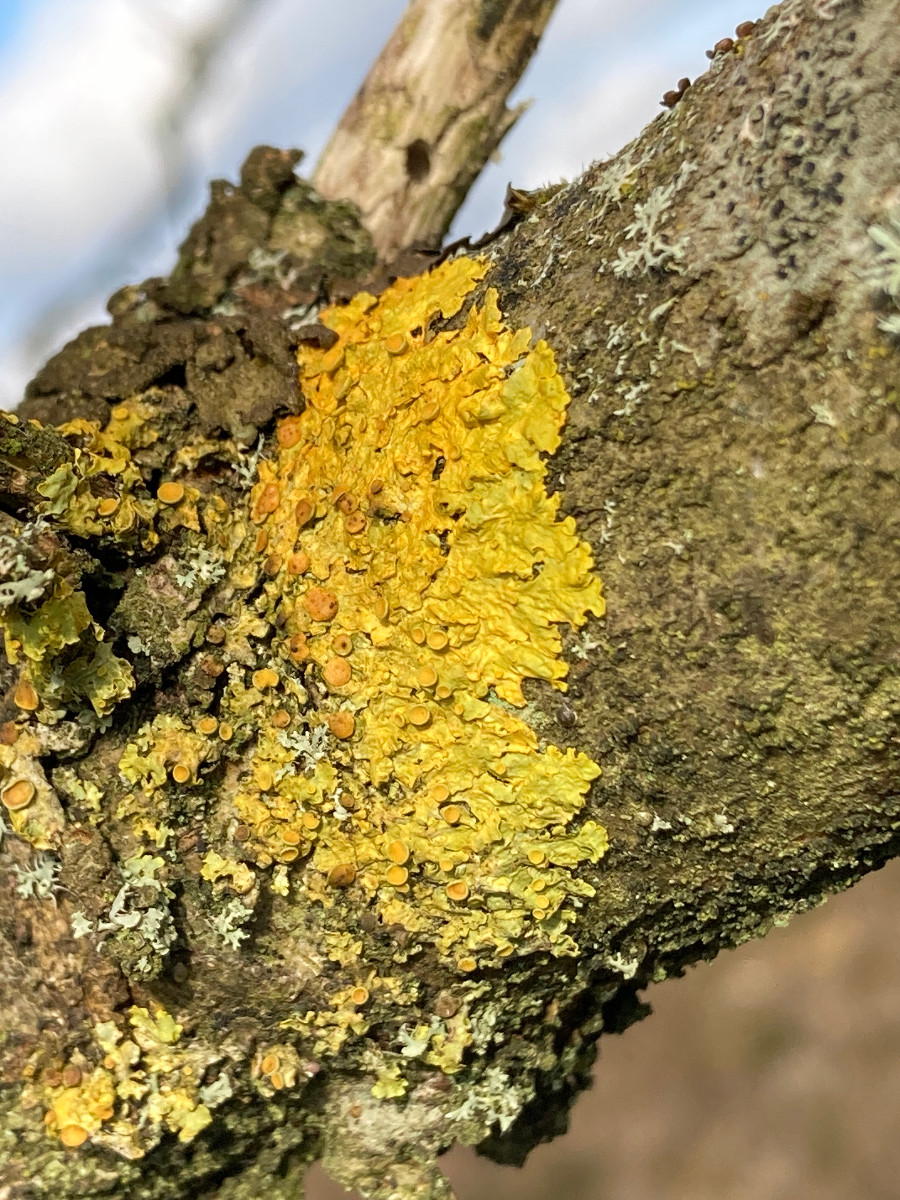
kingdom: Fungi
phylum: Ascomycota
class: Lecanoromycetes
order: Teloschistales
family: Teloschistaceae
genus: Xanthoria
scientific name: Xanthoria parietina
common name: almindelig væggelav
